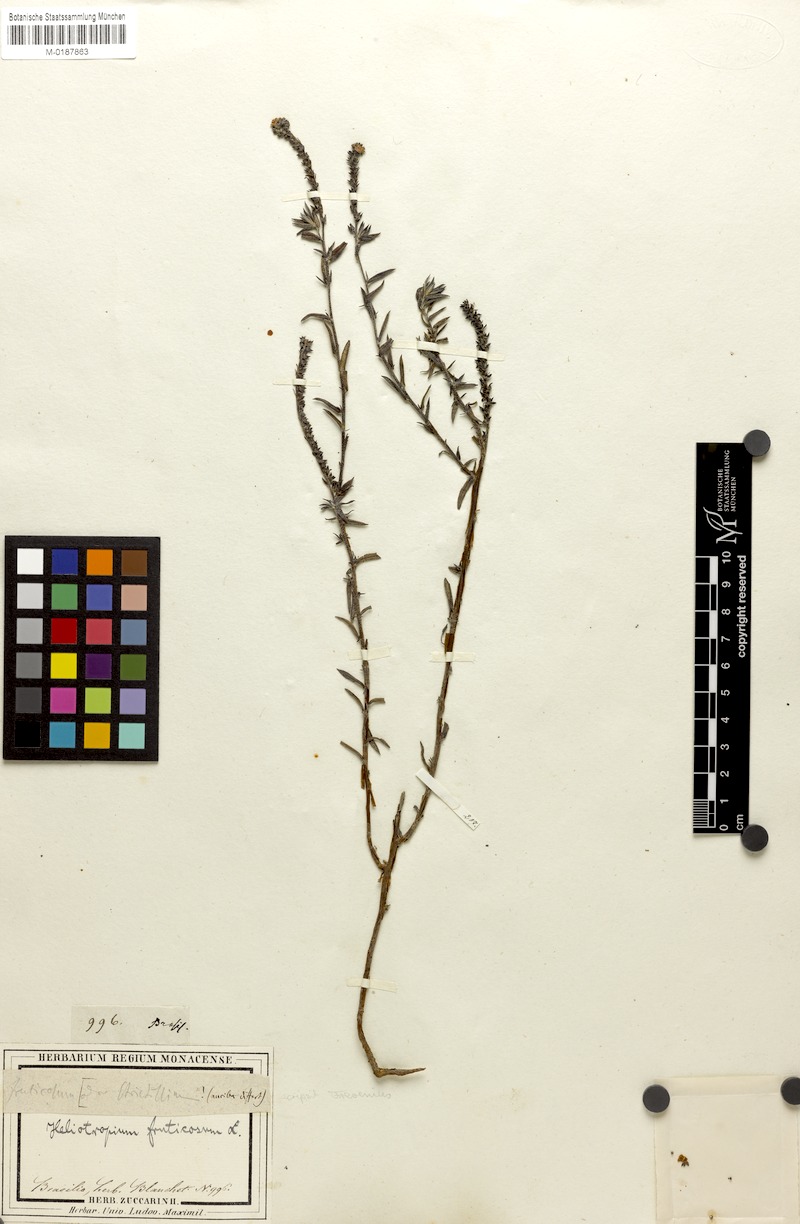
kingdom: Plantae
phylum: Tracheophyta
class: Magnoliopsida
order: Boraginales
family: Heliotropiaceae
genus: Euploca
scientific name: Euploca fruticosa
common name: Key west heliotrope
